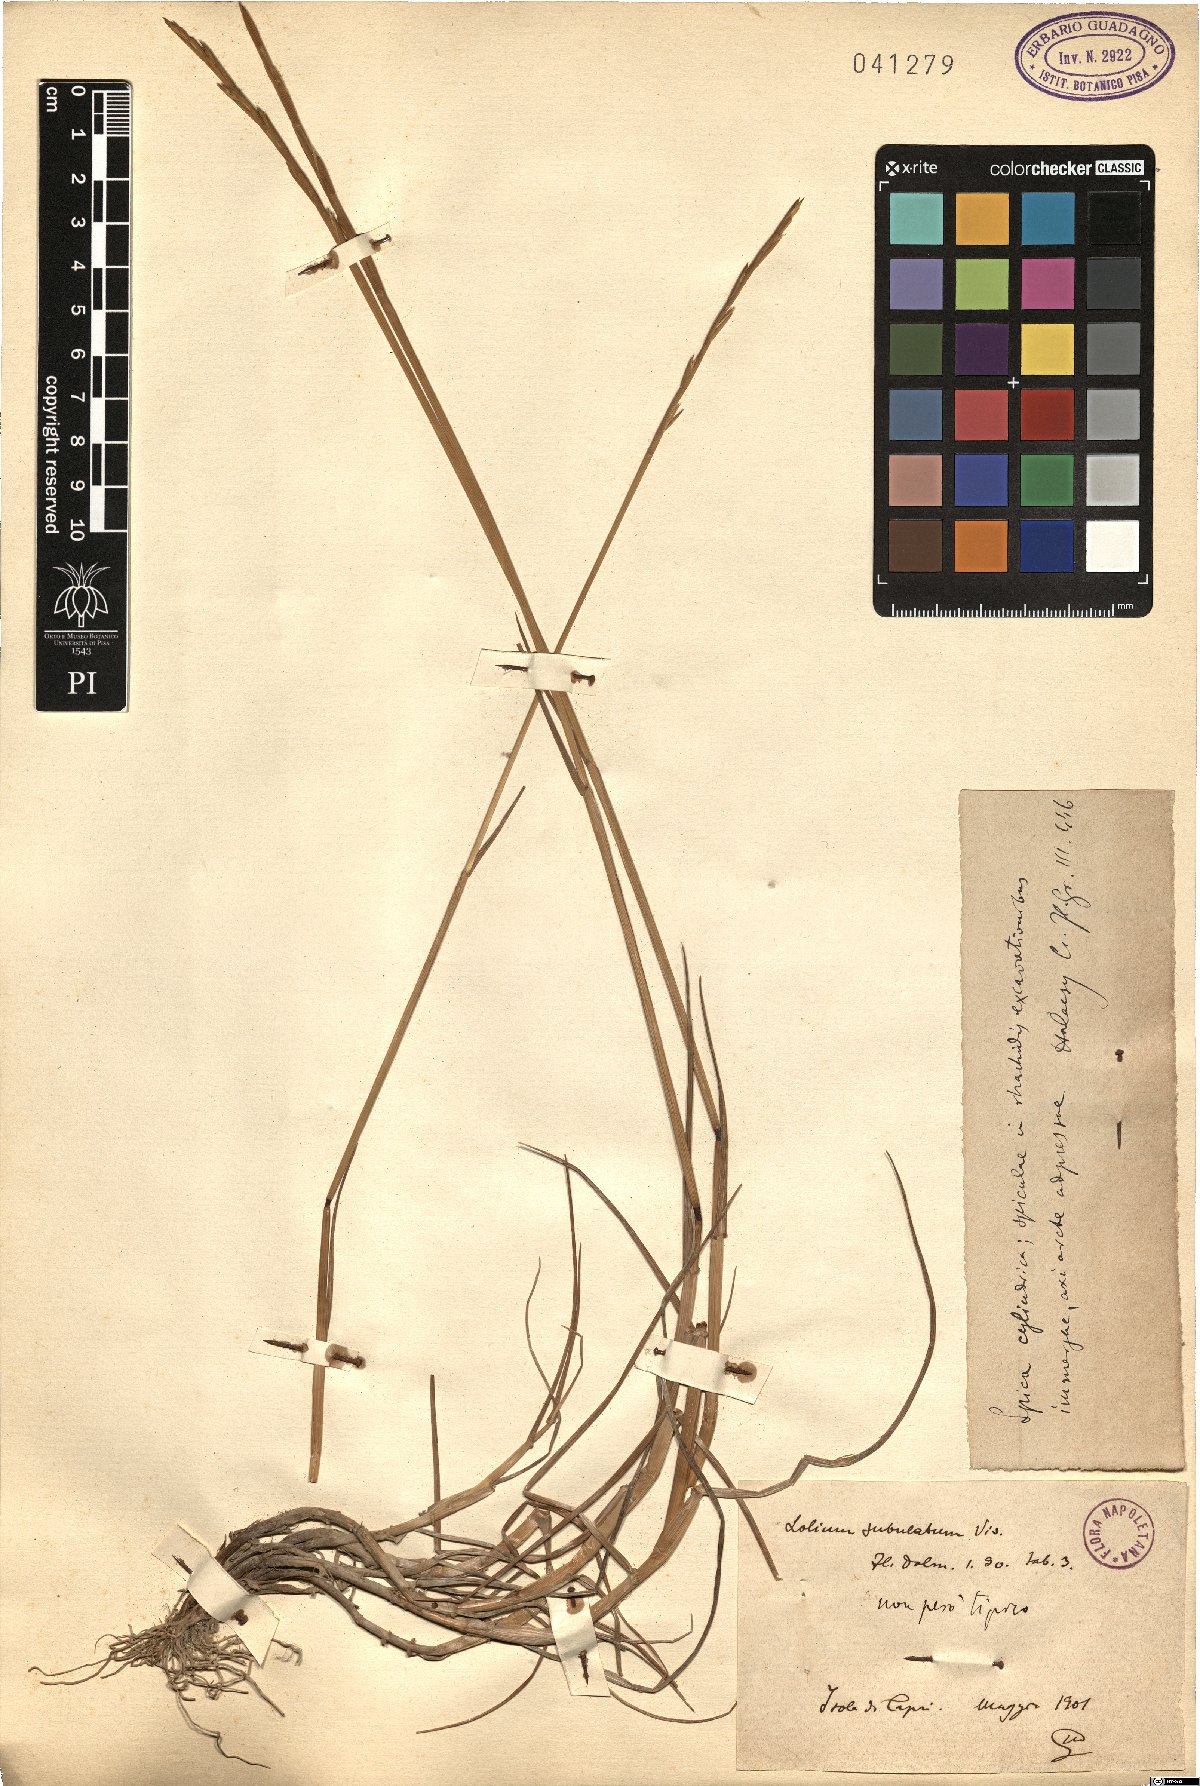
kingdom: Plantae
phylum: Tracheophyta
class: Liliopsida
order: Poales
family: Poaceae
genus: Lolium
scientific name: Lolium subulatum
